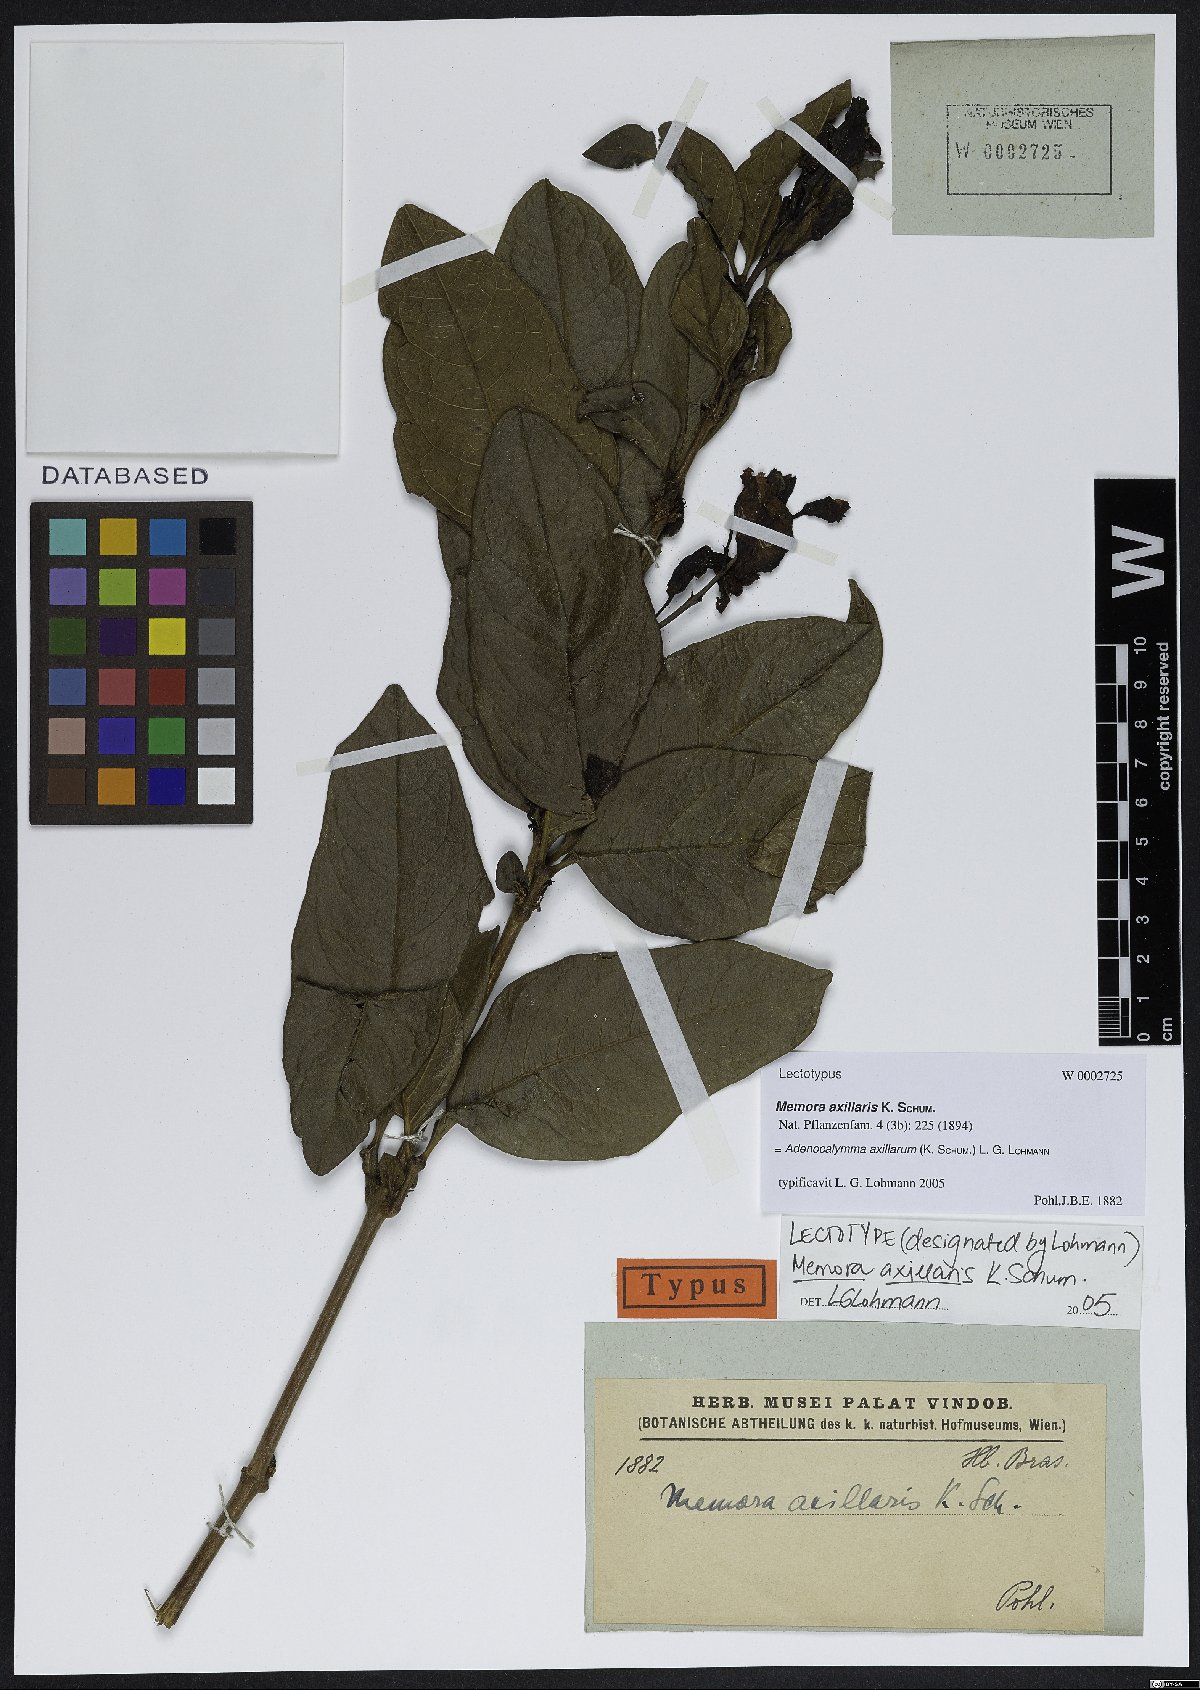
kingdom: Plantae
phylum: Tracheophyta
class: Magnoliopsida
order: Lamiales
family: Bignoniaceae
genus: Adenocalymma
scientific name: Adenocalymma axillare
